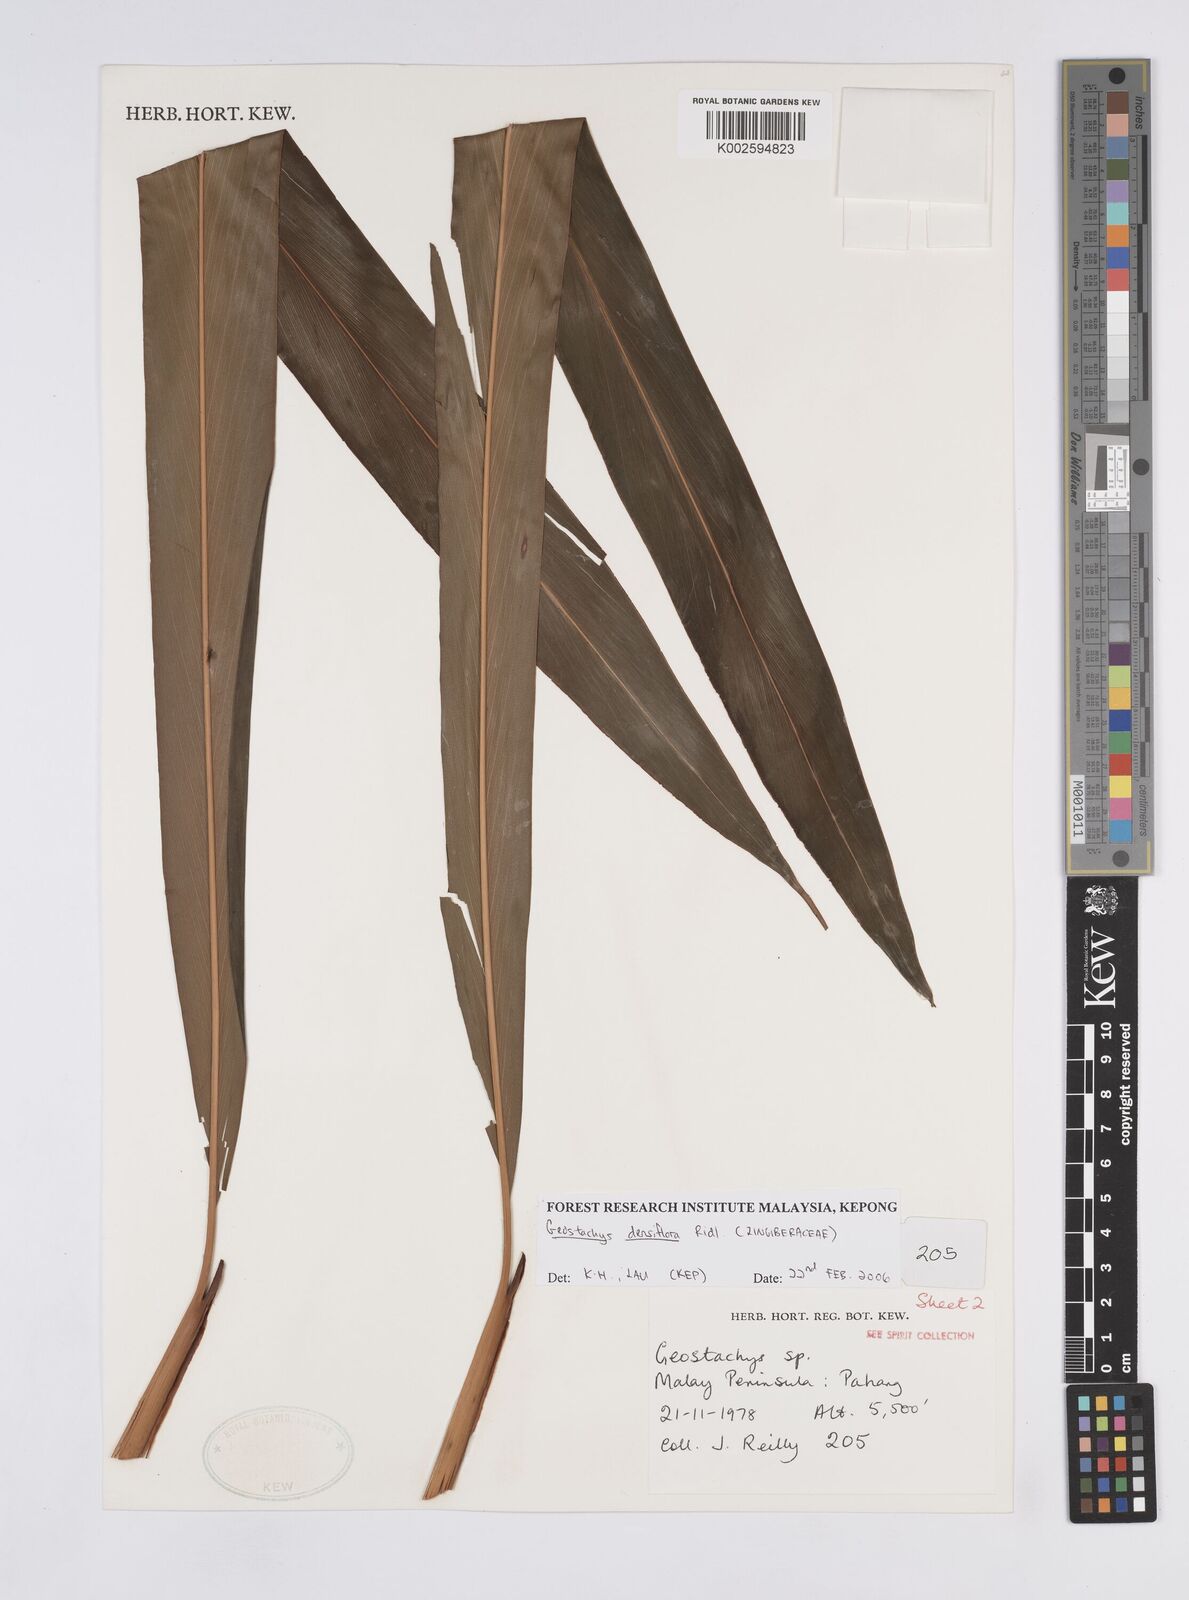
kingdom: Plantae
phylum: Tracheophyta
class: Liliopsida
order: Zingiberales
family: Zingiberaceae
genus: Geostachys
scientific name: Geostachys densiflora
